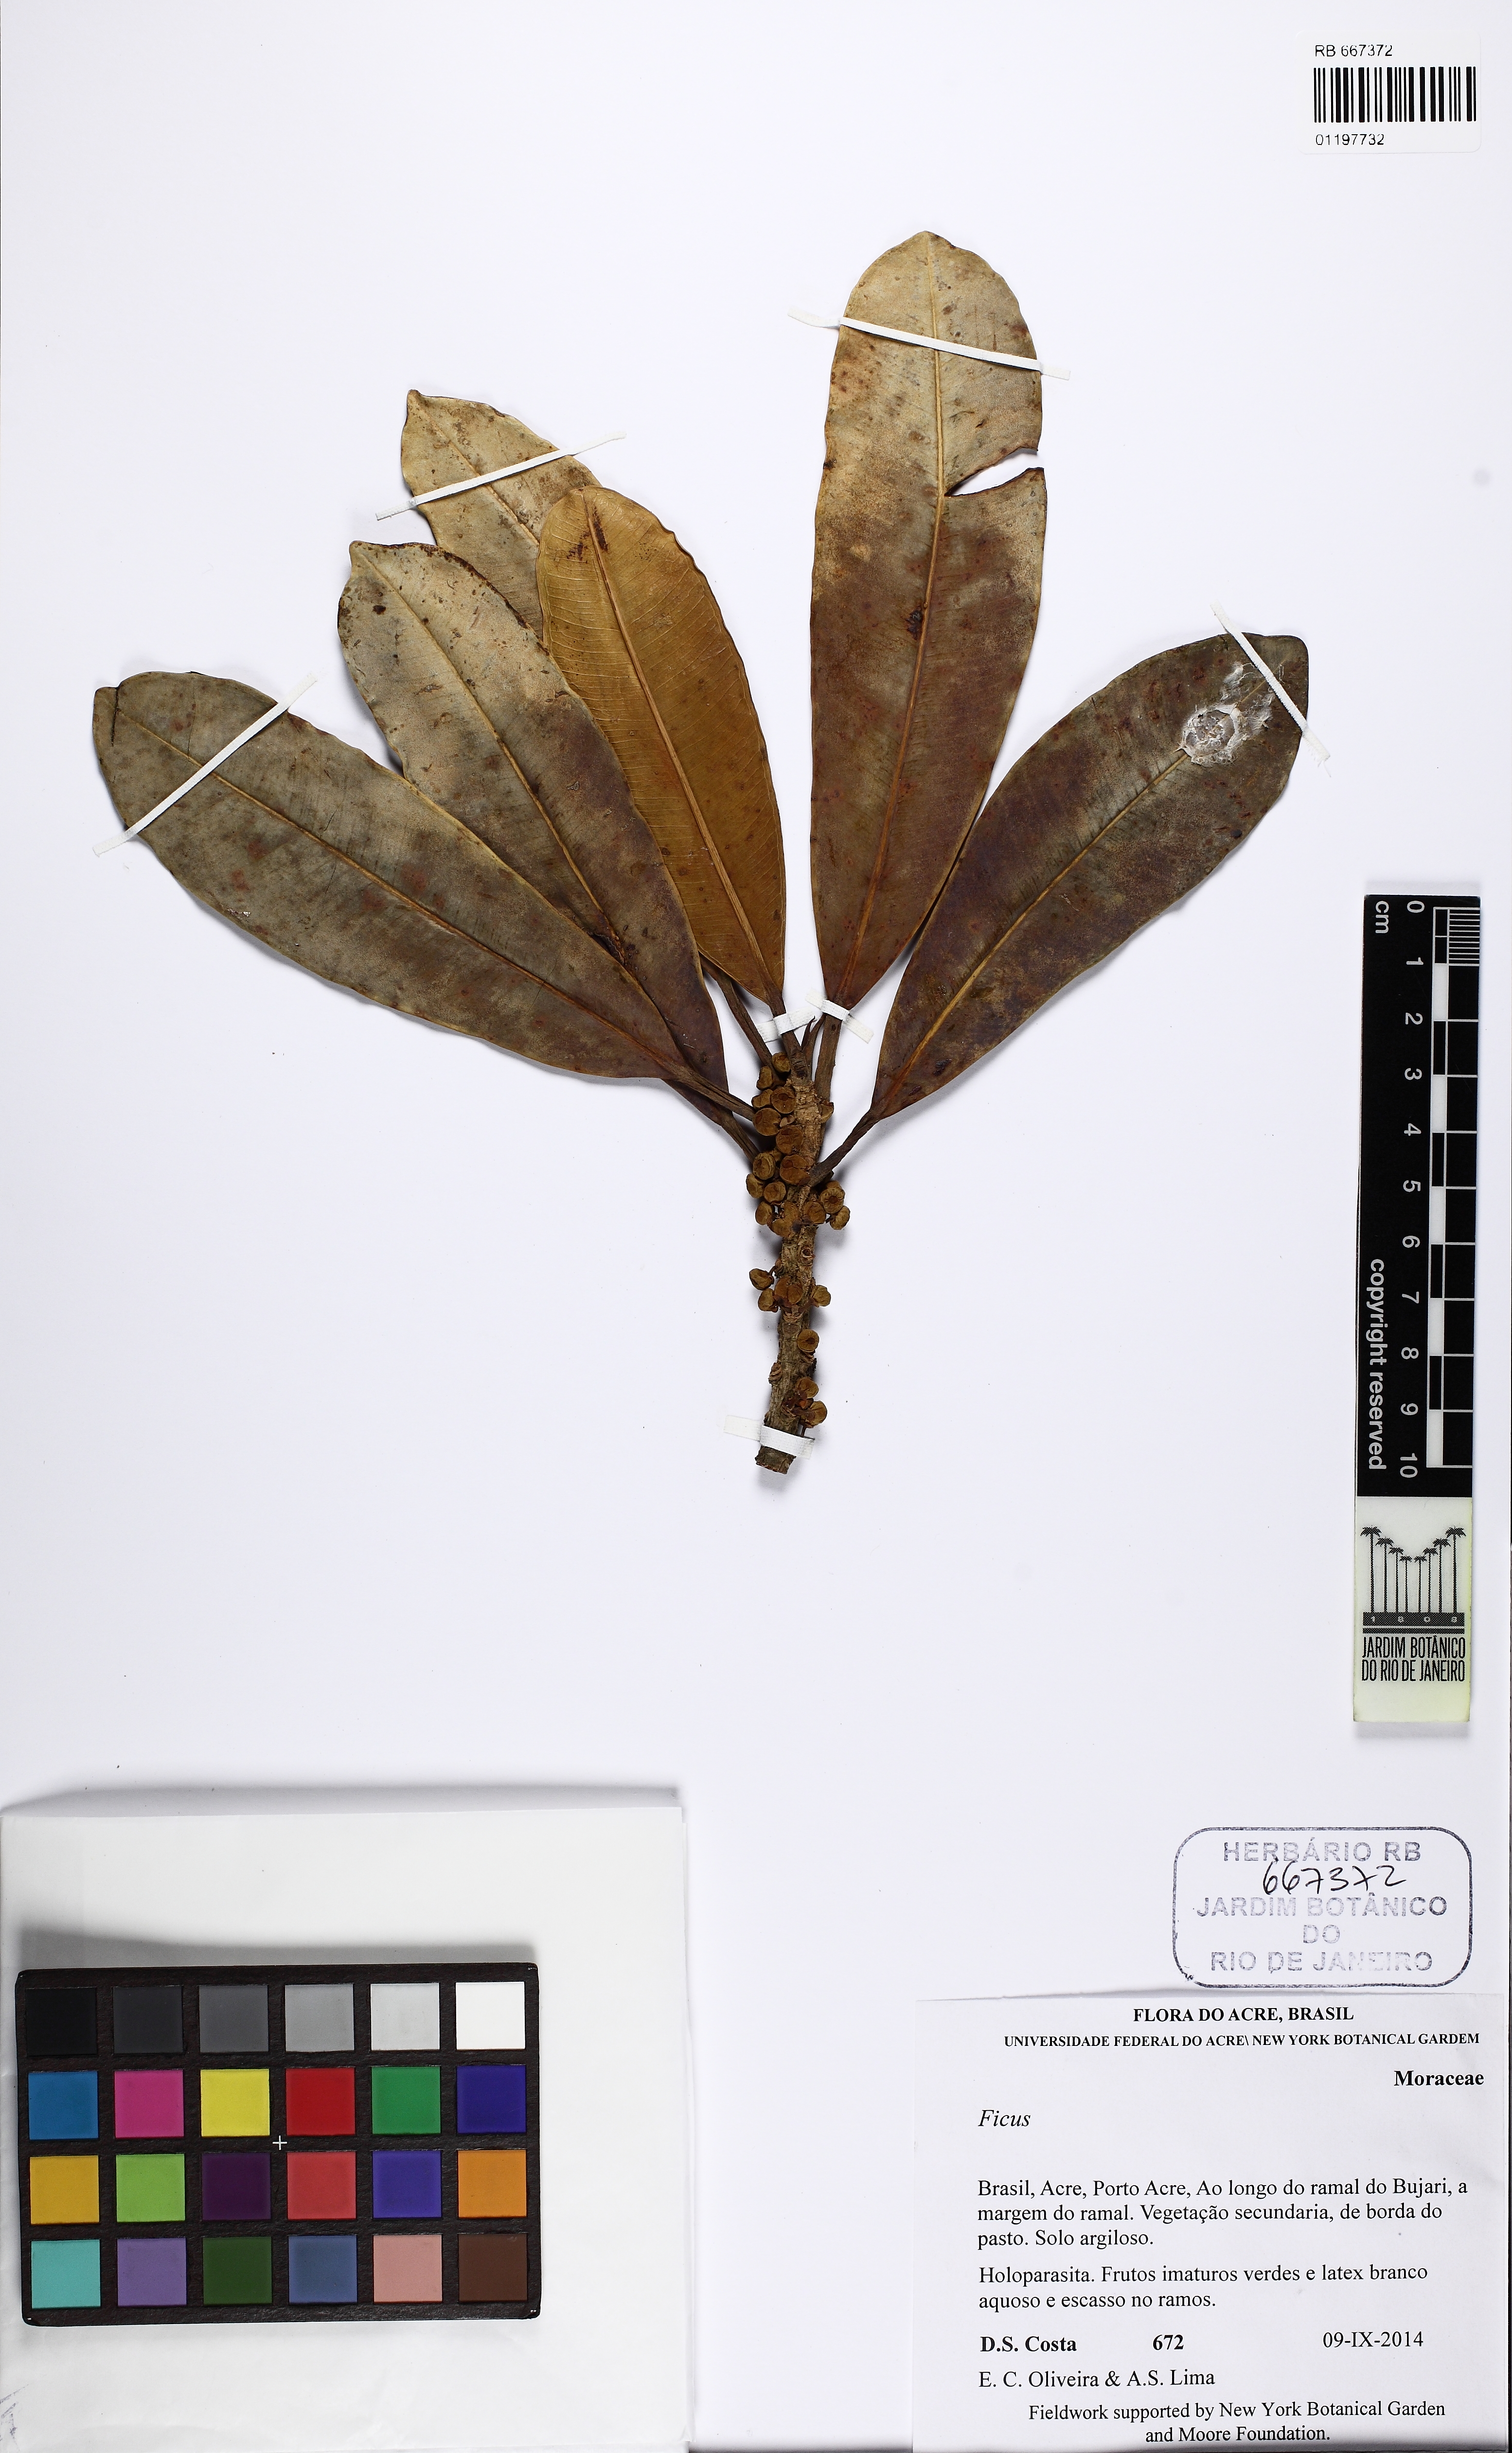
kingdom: Plantae
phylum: Tracheophyta
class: Magnoliopsida
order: Rosales
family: Moraceae
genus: Ficus
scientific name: Ficus sphenophylla
